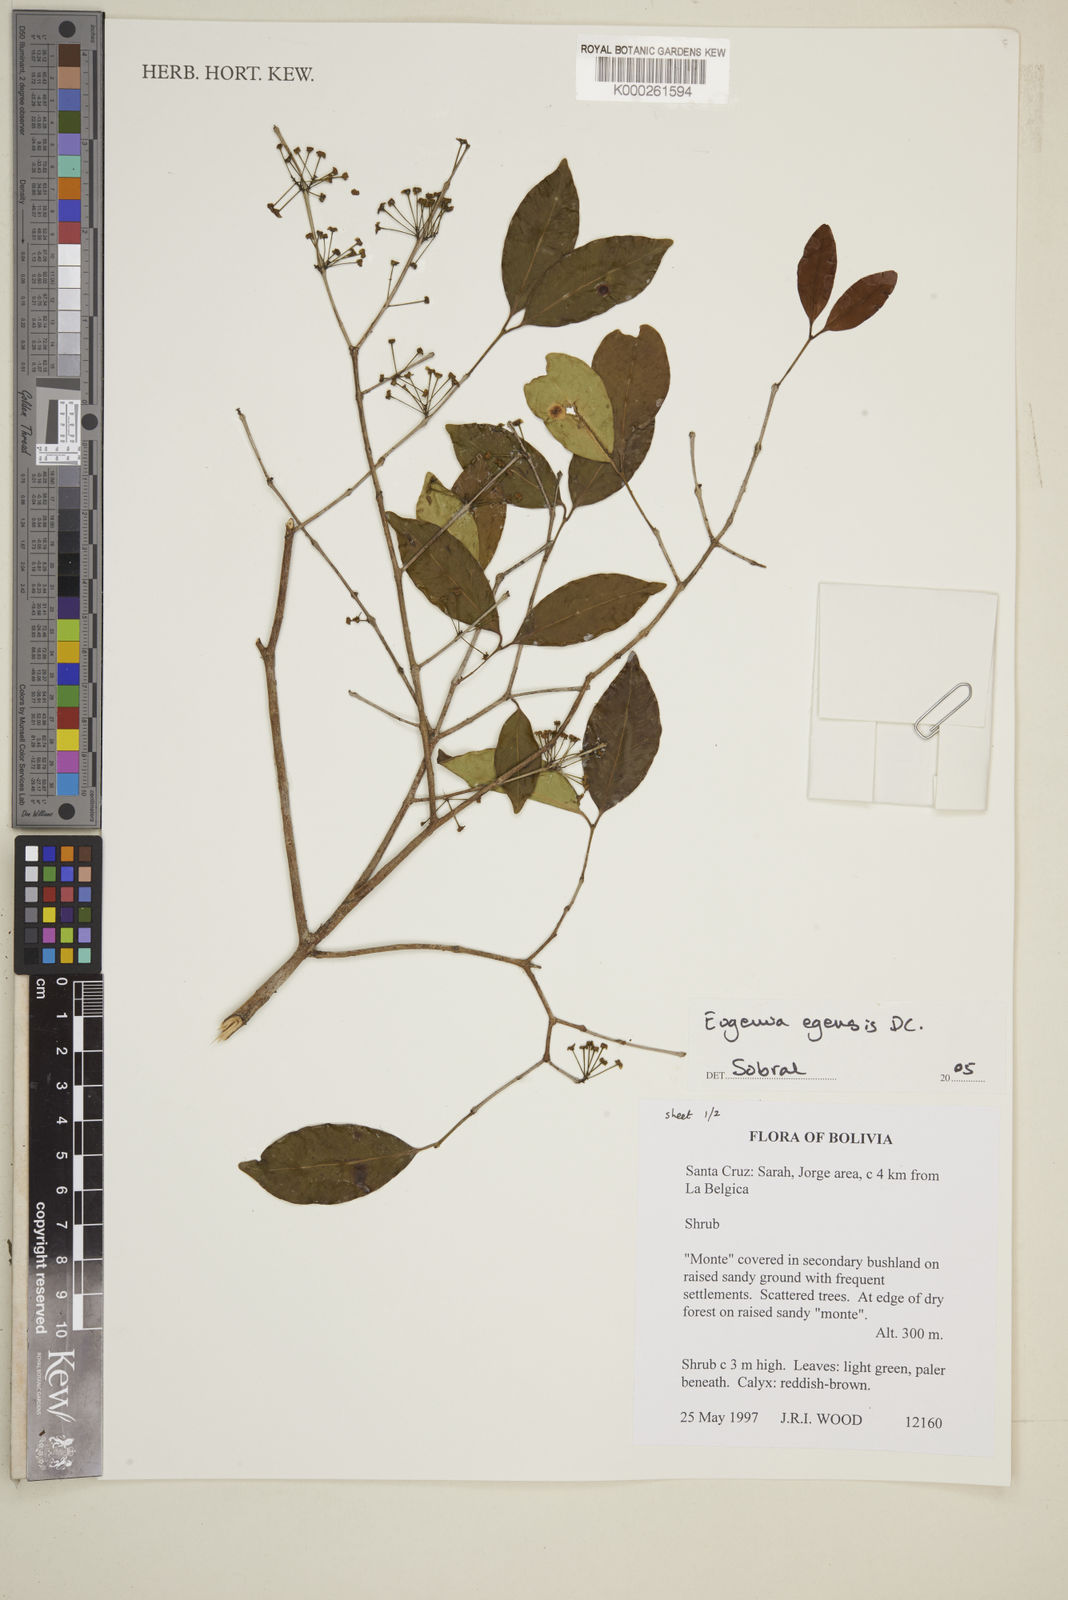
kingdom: Plantae
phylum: Tracheophyta
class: Magnoliopsida
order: Myrtales
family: Myrtaceae
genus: Eugenia
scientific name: Eugenia egensis
